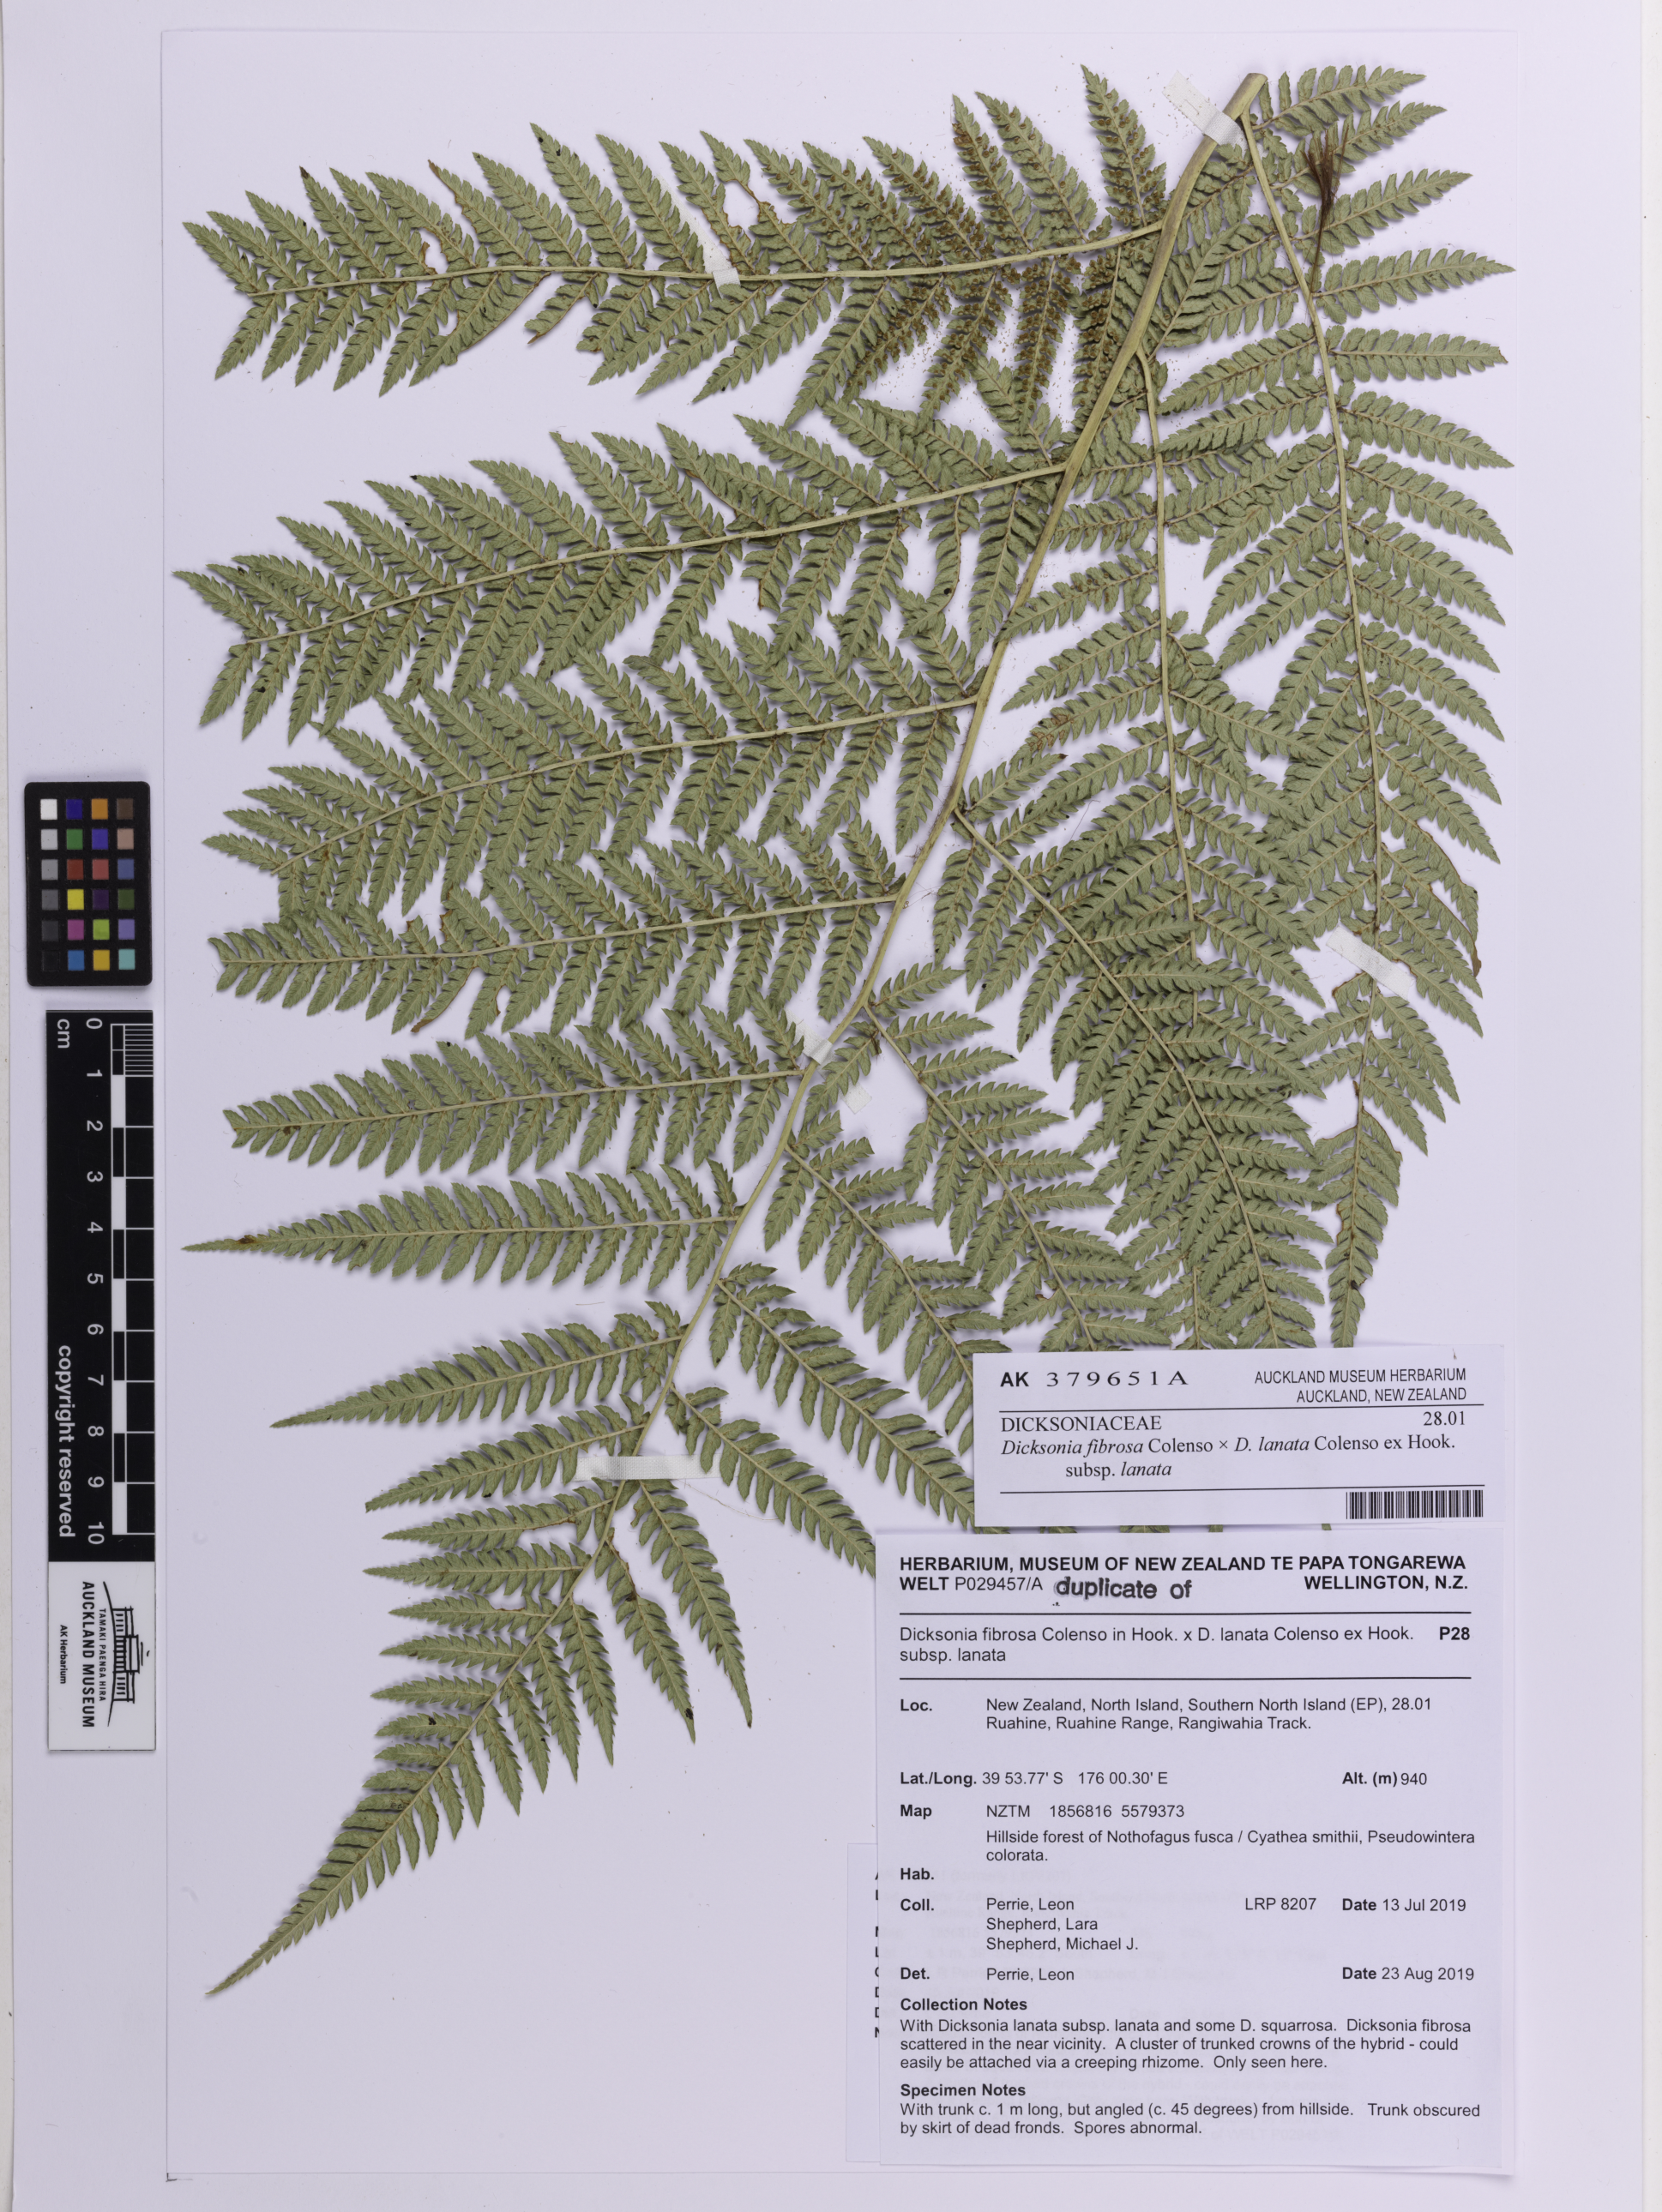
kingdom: Plantae
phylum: Tracheophyta
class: Polypodiopsida
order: Cyatheales
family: Dicksoniaceae
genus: Dicksonia
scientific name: Dicksonia
